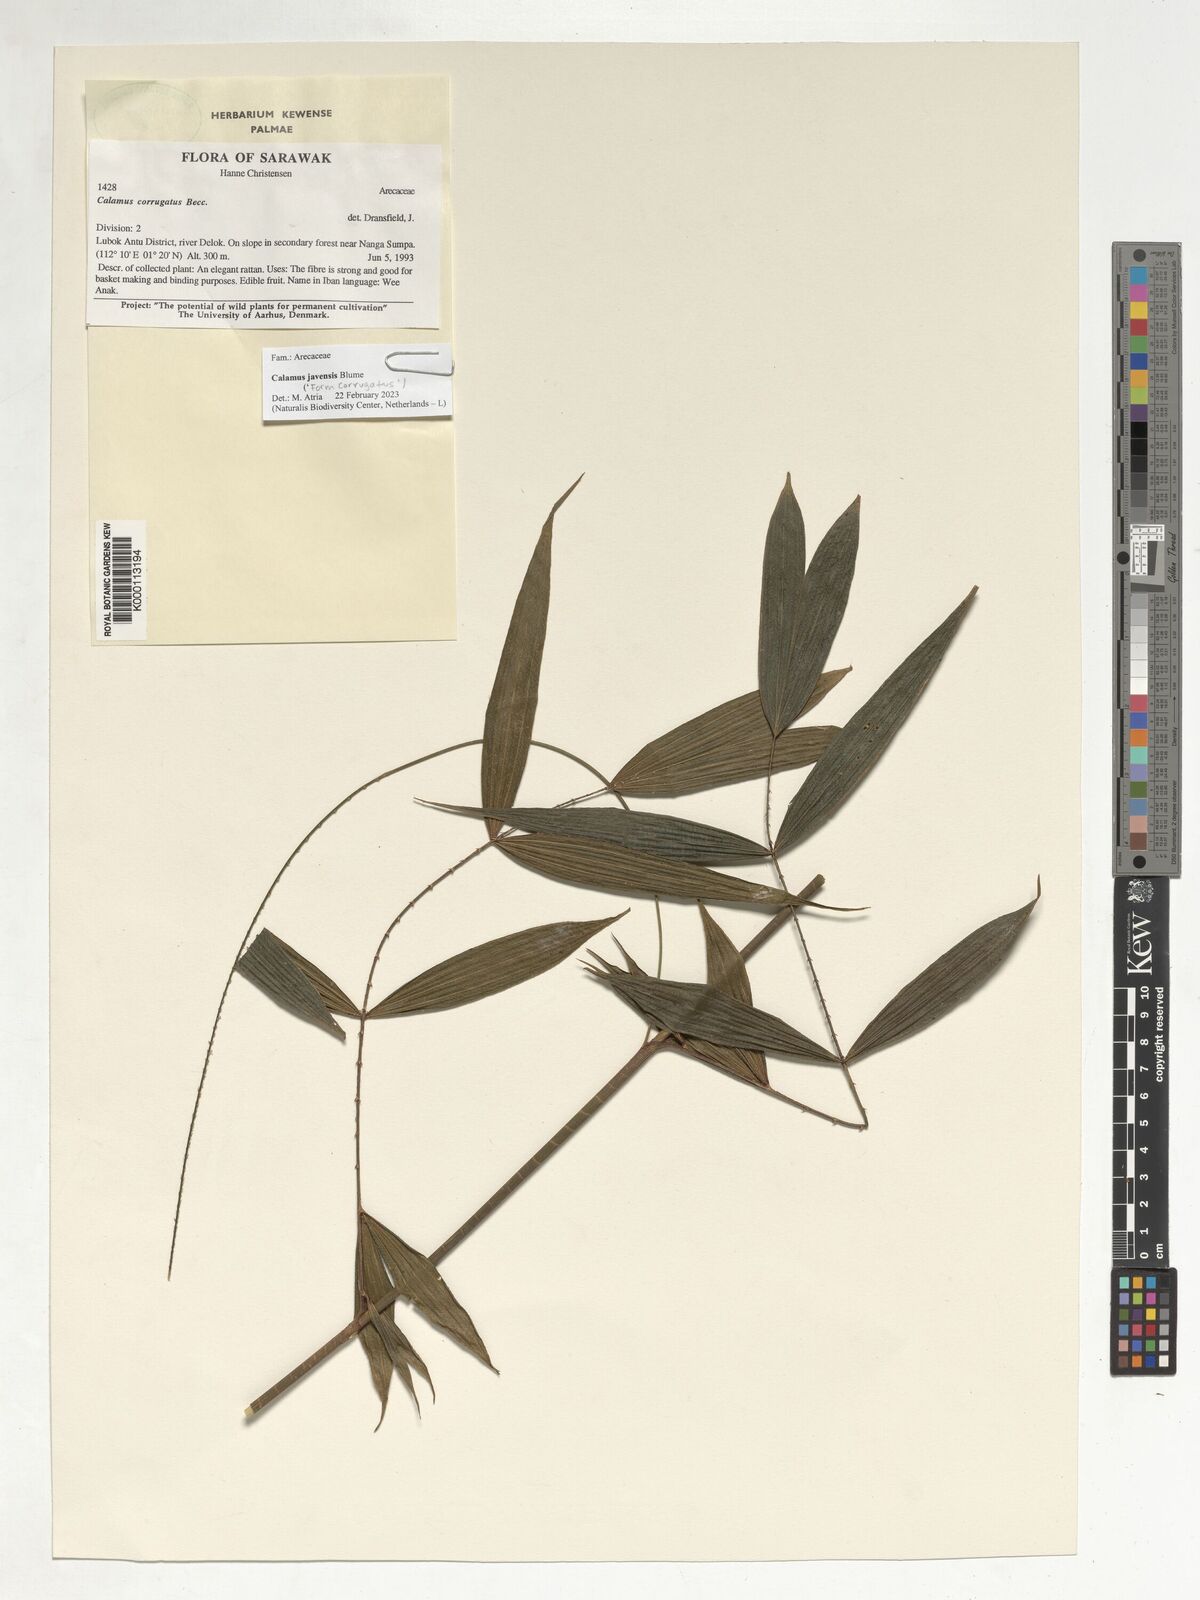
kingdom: Plantae
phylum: Tracheophyta
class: Liliopsida
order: Arecales
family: Arecaceae
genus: Calamus
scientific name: Calamus javensis
